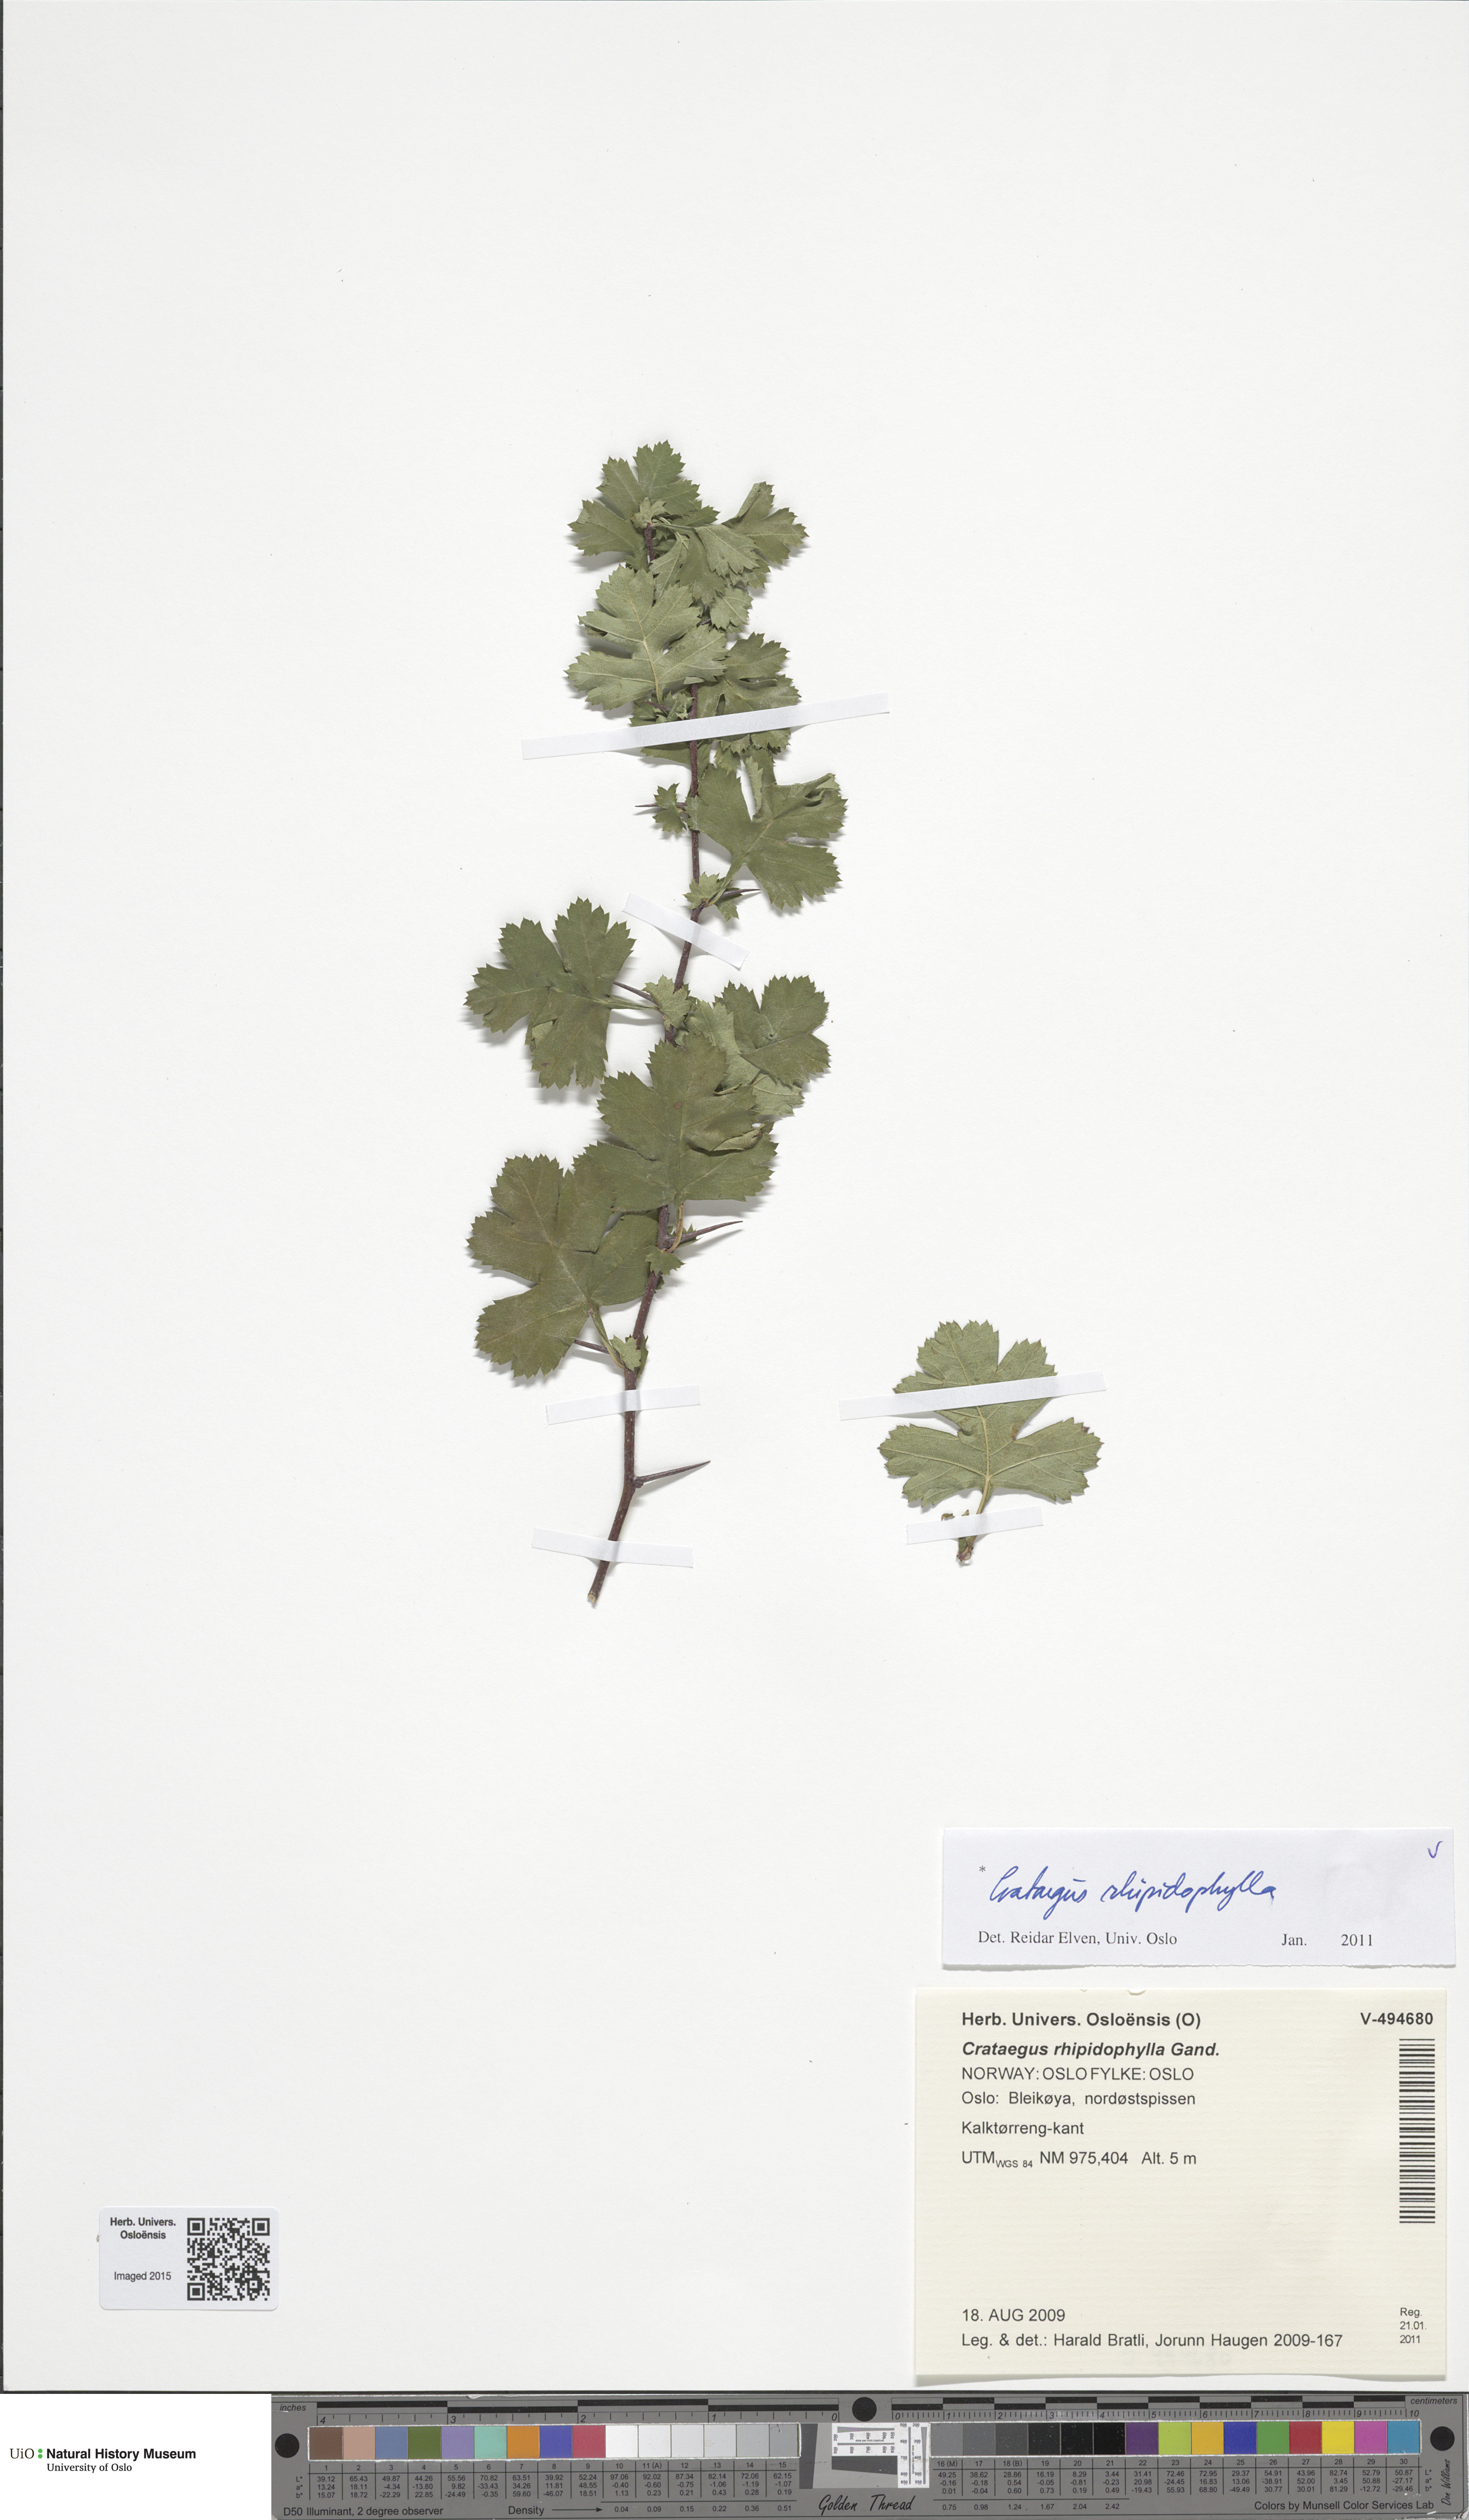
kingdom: Plantae
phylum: Tracheophyta
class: Magnoliopsida
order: Rosales
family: Rosaceae
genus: Crataegus
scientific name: Crataegus rhipidophylla
